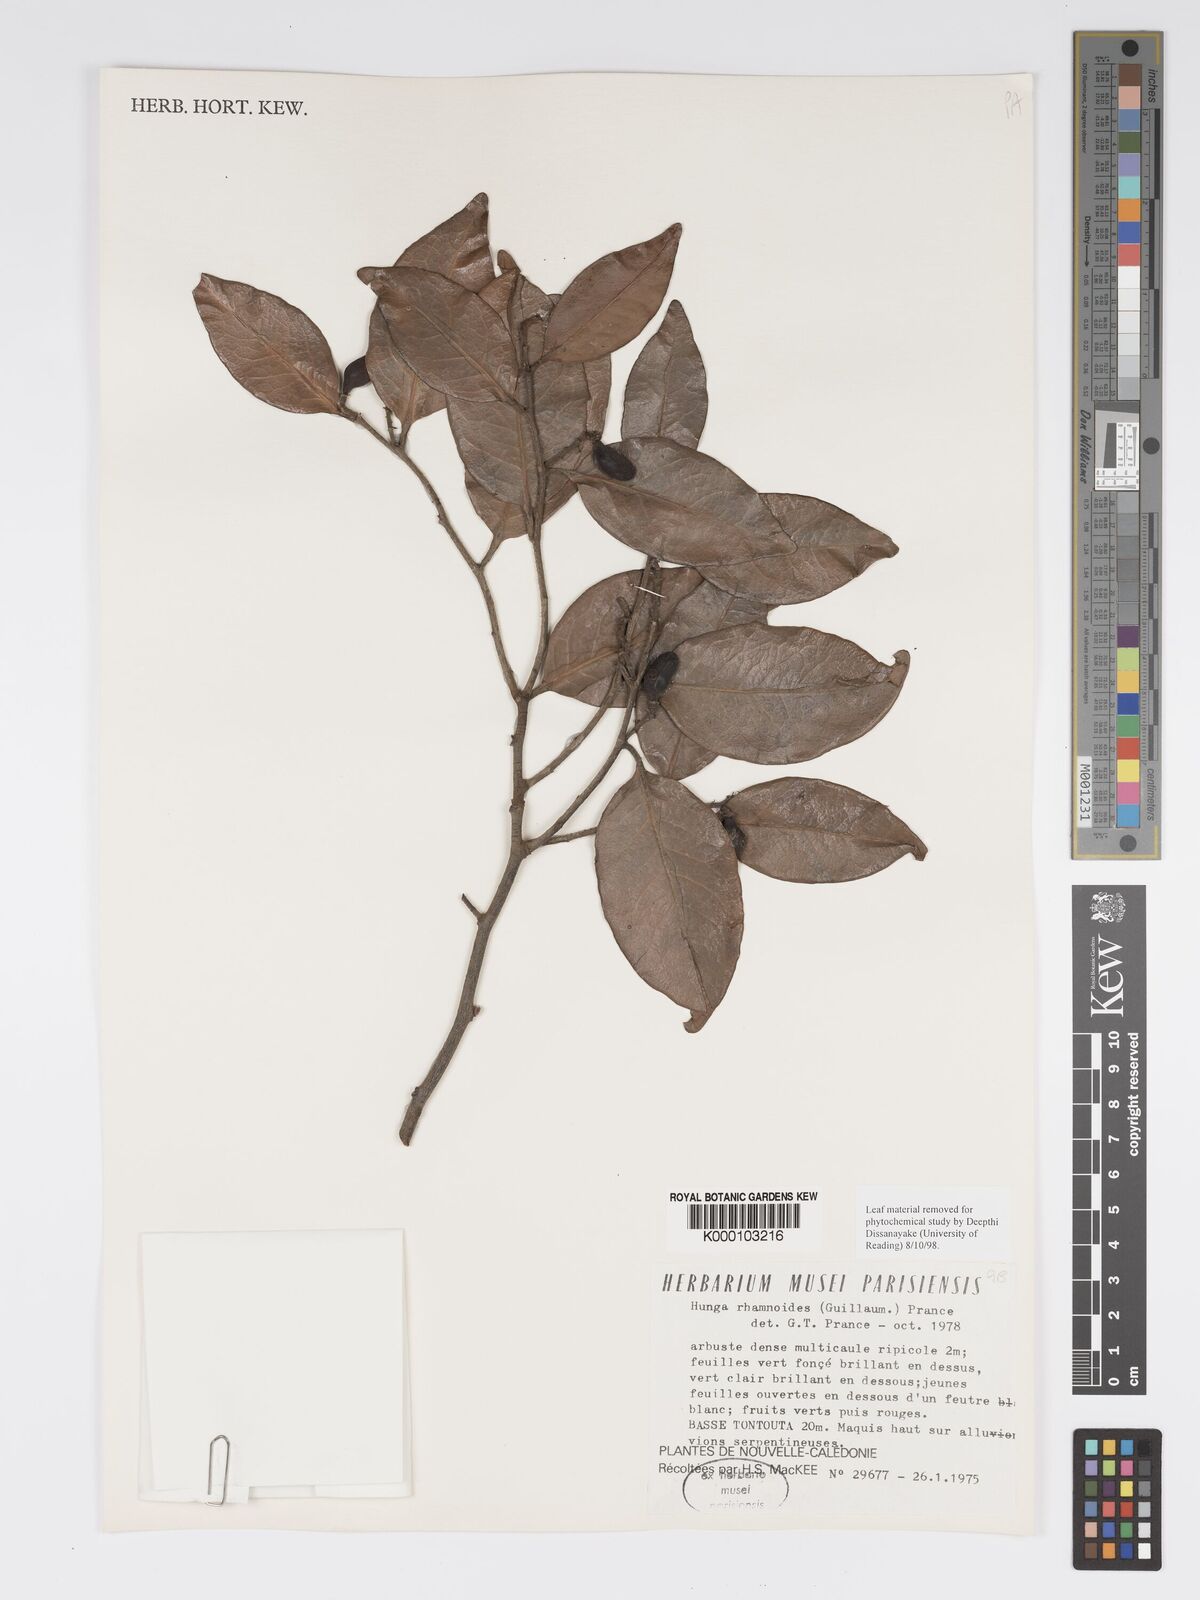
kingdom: Plantae
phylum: Tracheophyta
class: Magnoliopsida
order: Malpighiales
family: Chrysobalanaceae
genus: Hunga
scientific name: Hunga rhamnoides
